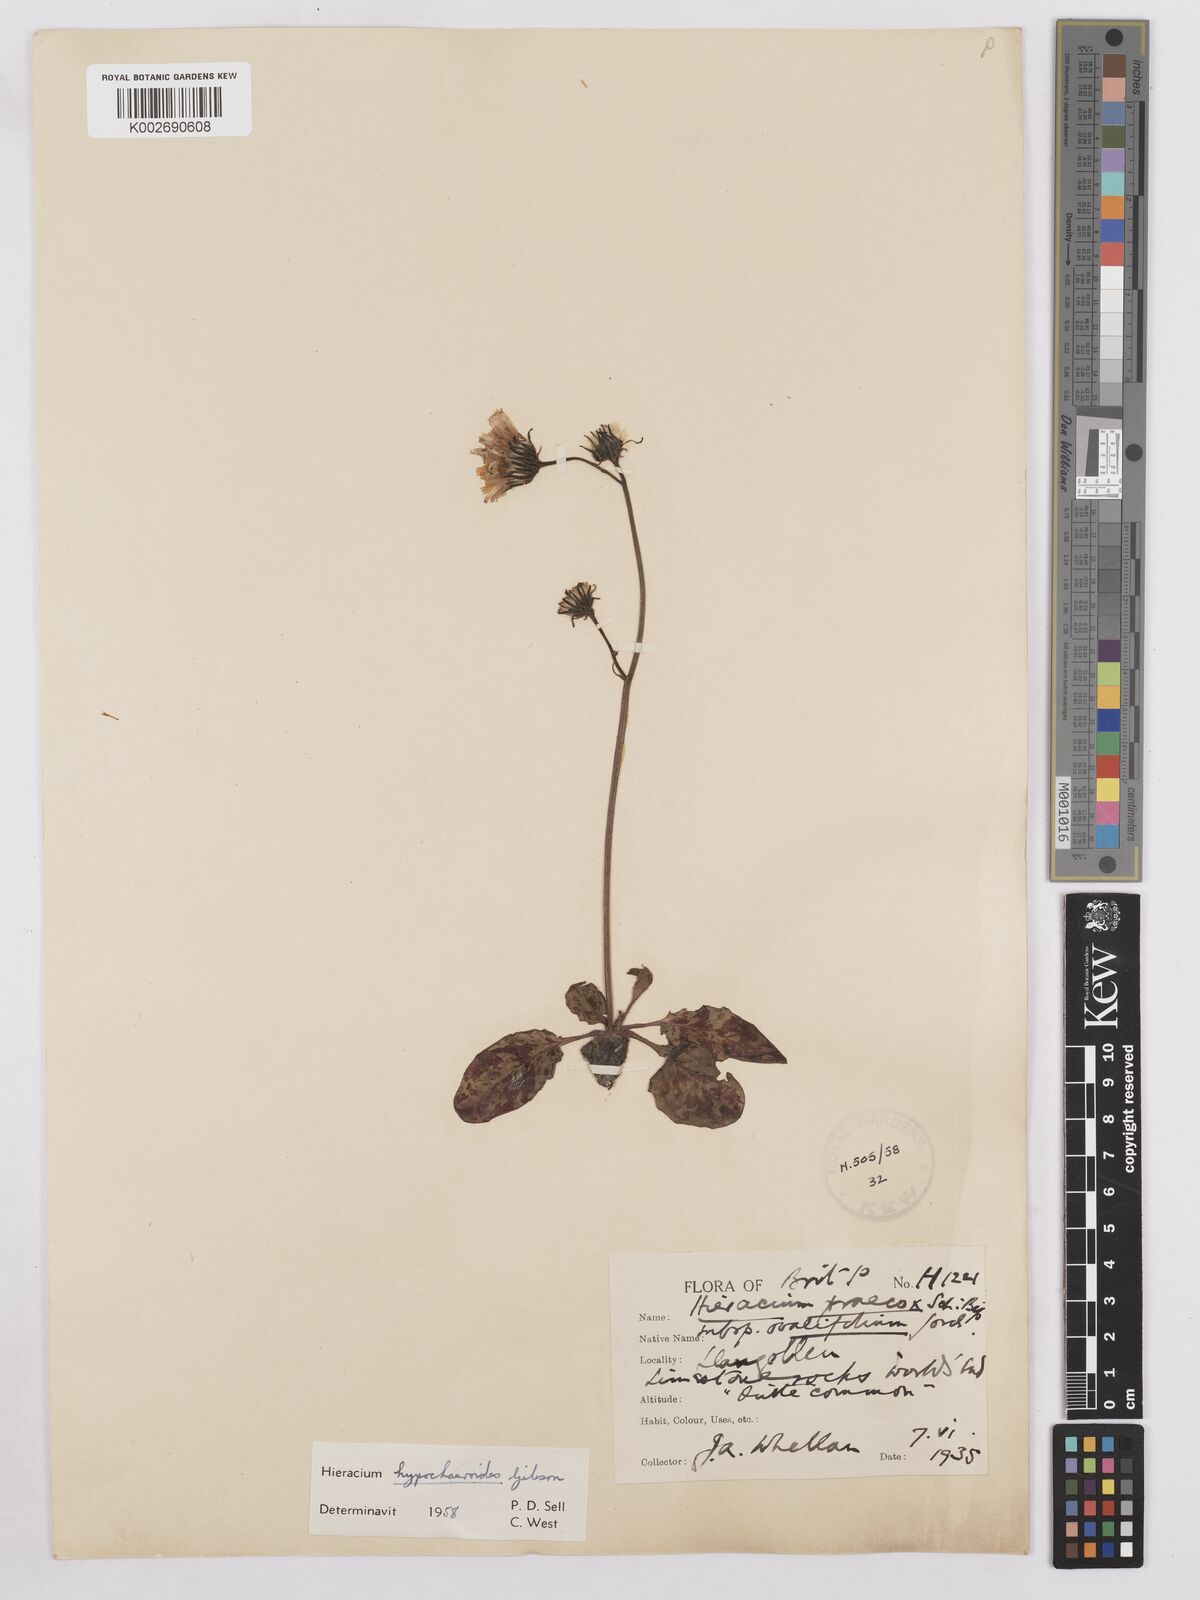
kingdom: Plantae
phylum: Tracheophyta
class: Magnoliopsida
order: Asterales
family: Asteraceae
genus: Hieracium
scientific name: Hieracium hypochoeroides
